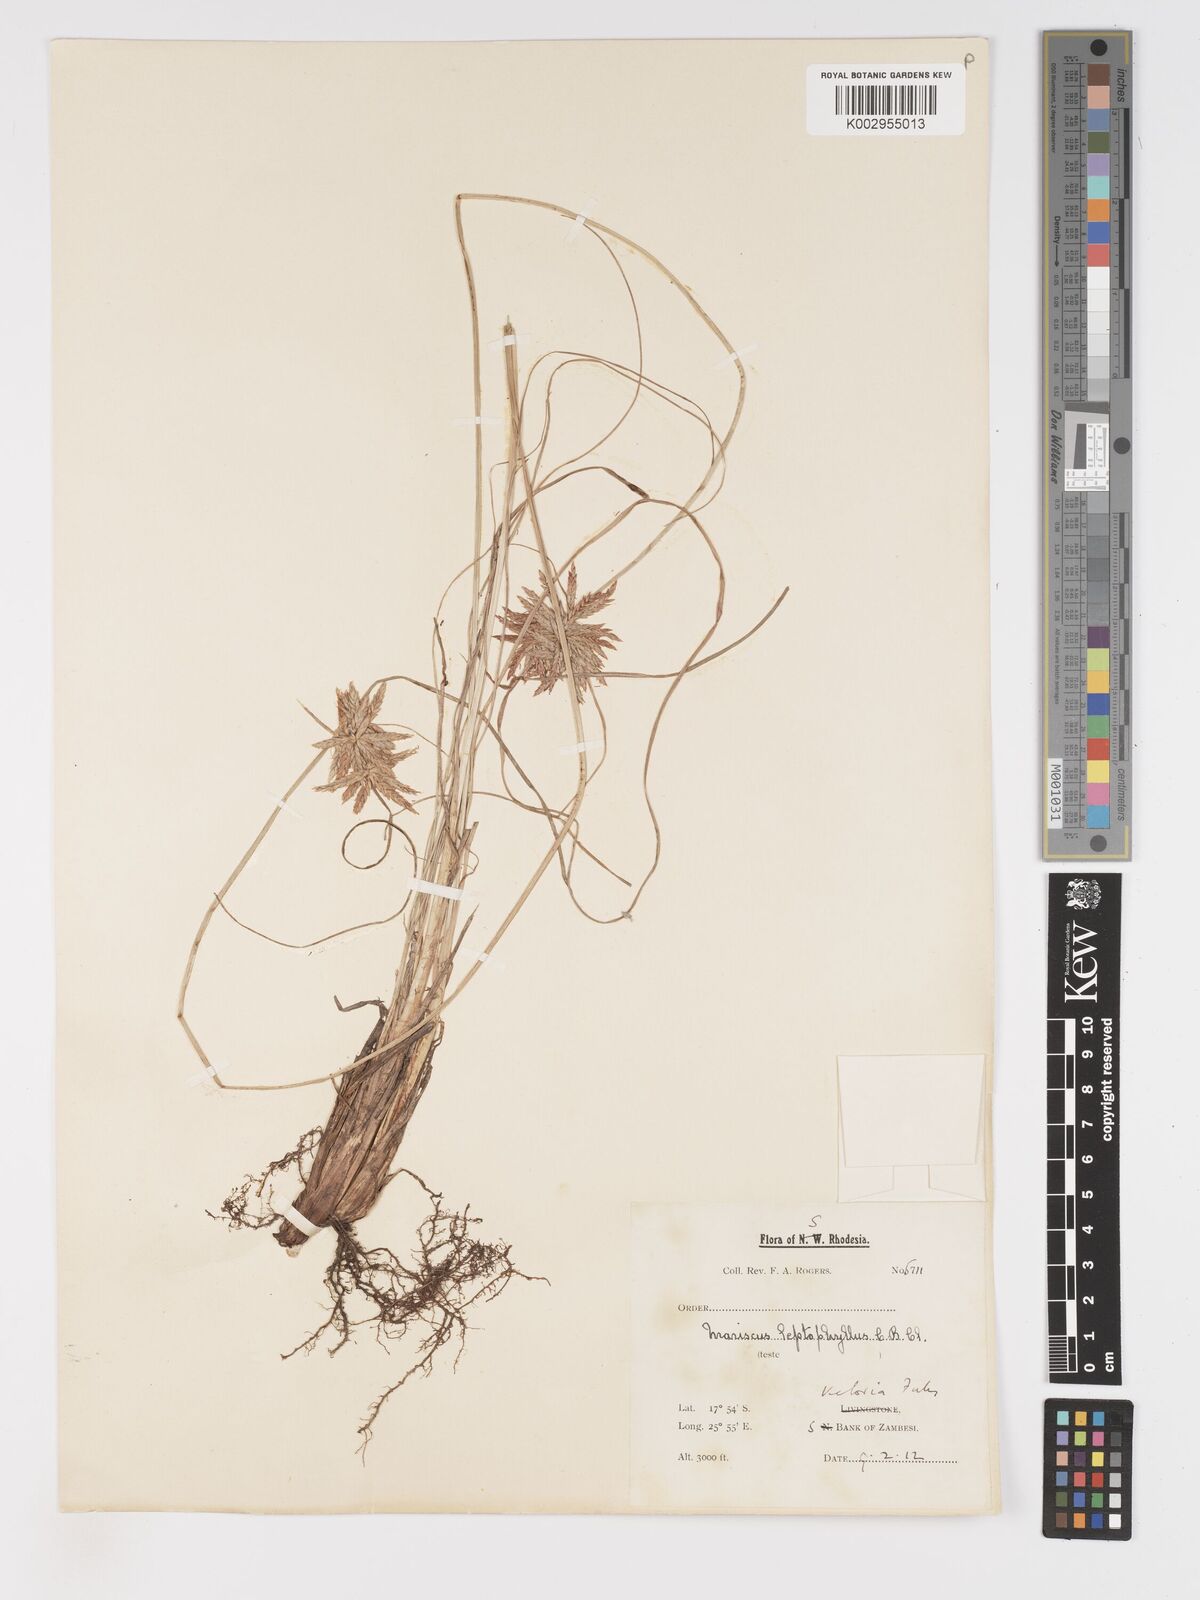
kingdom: Plantae
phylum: Tracheophyta
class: Liliopsida
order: Poales
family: Cyperaceae
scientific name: Cyperaceae
